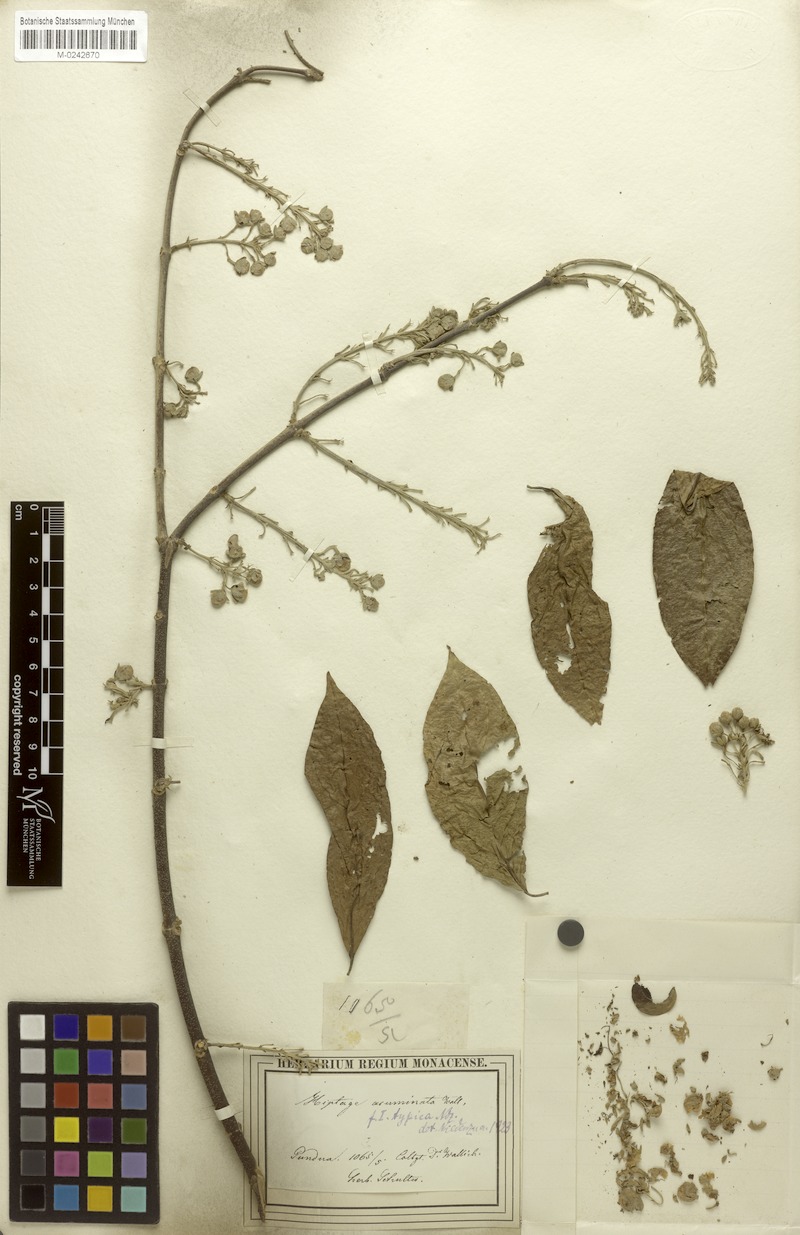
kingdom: Plantae
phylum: Tracheophyta
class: Magnoliopsida
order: Malpighiales
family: Malpighiaceae
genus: Hiptage
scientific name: Hiptage acuminata
